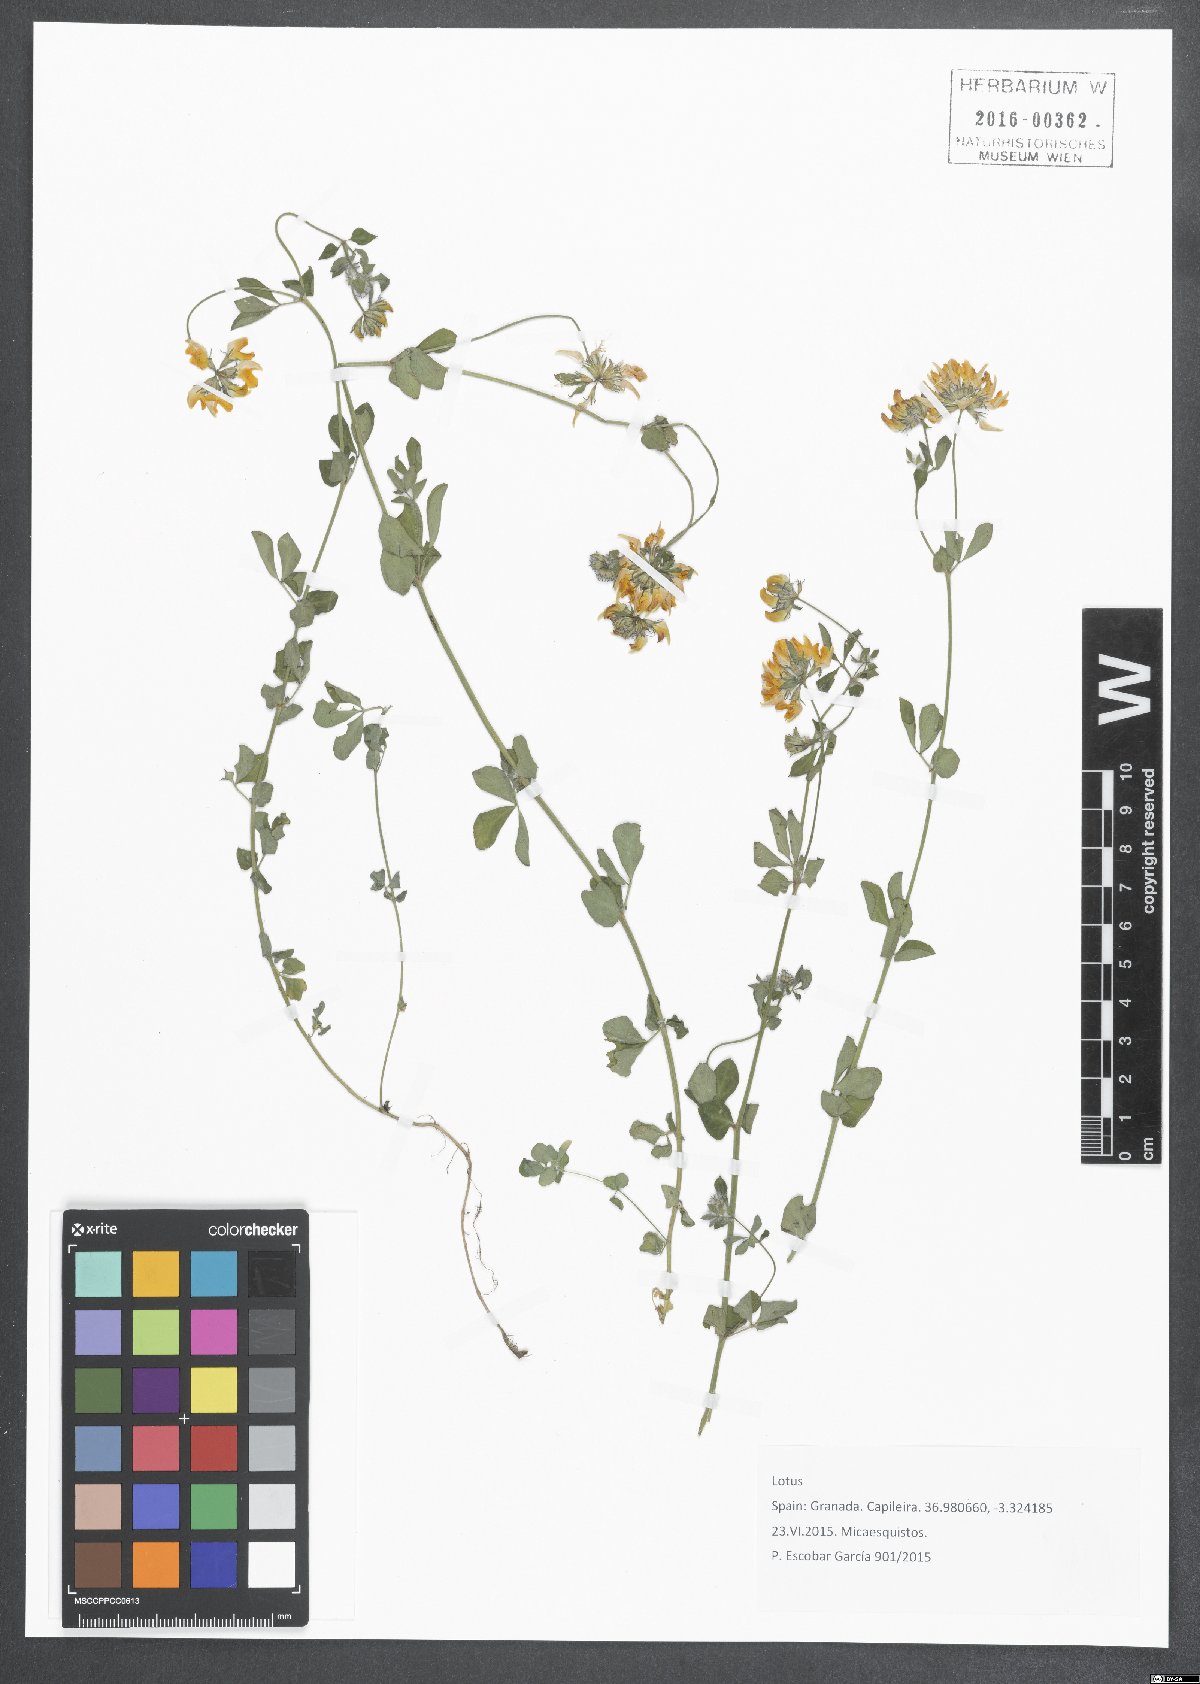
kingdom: Plantae
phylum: Tracheophyta
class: Magnoliopsida
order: Fabales
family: Fabaceae
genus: Lotus
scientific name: Lotus
